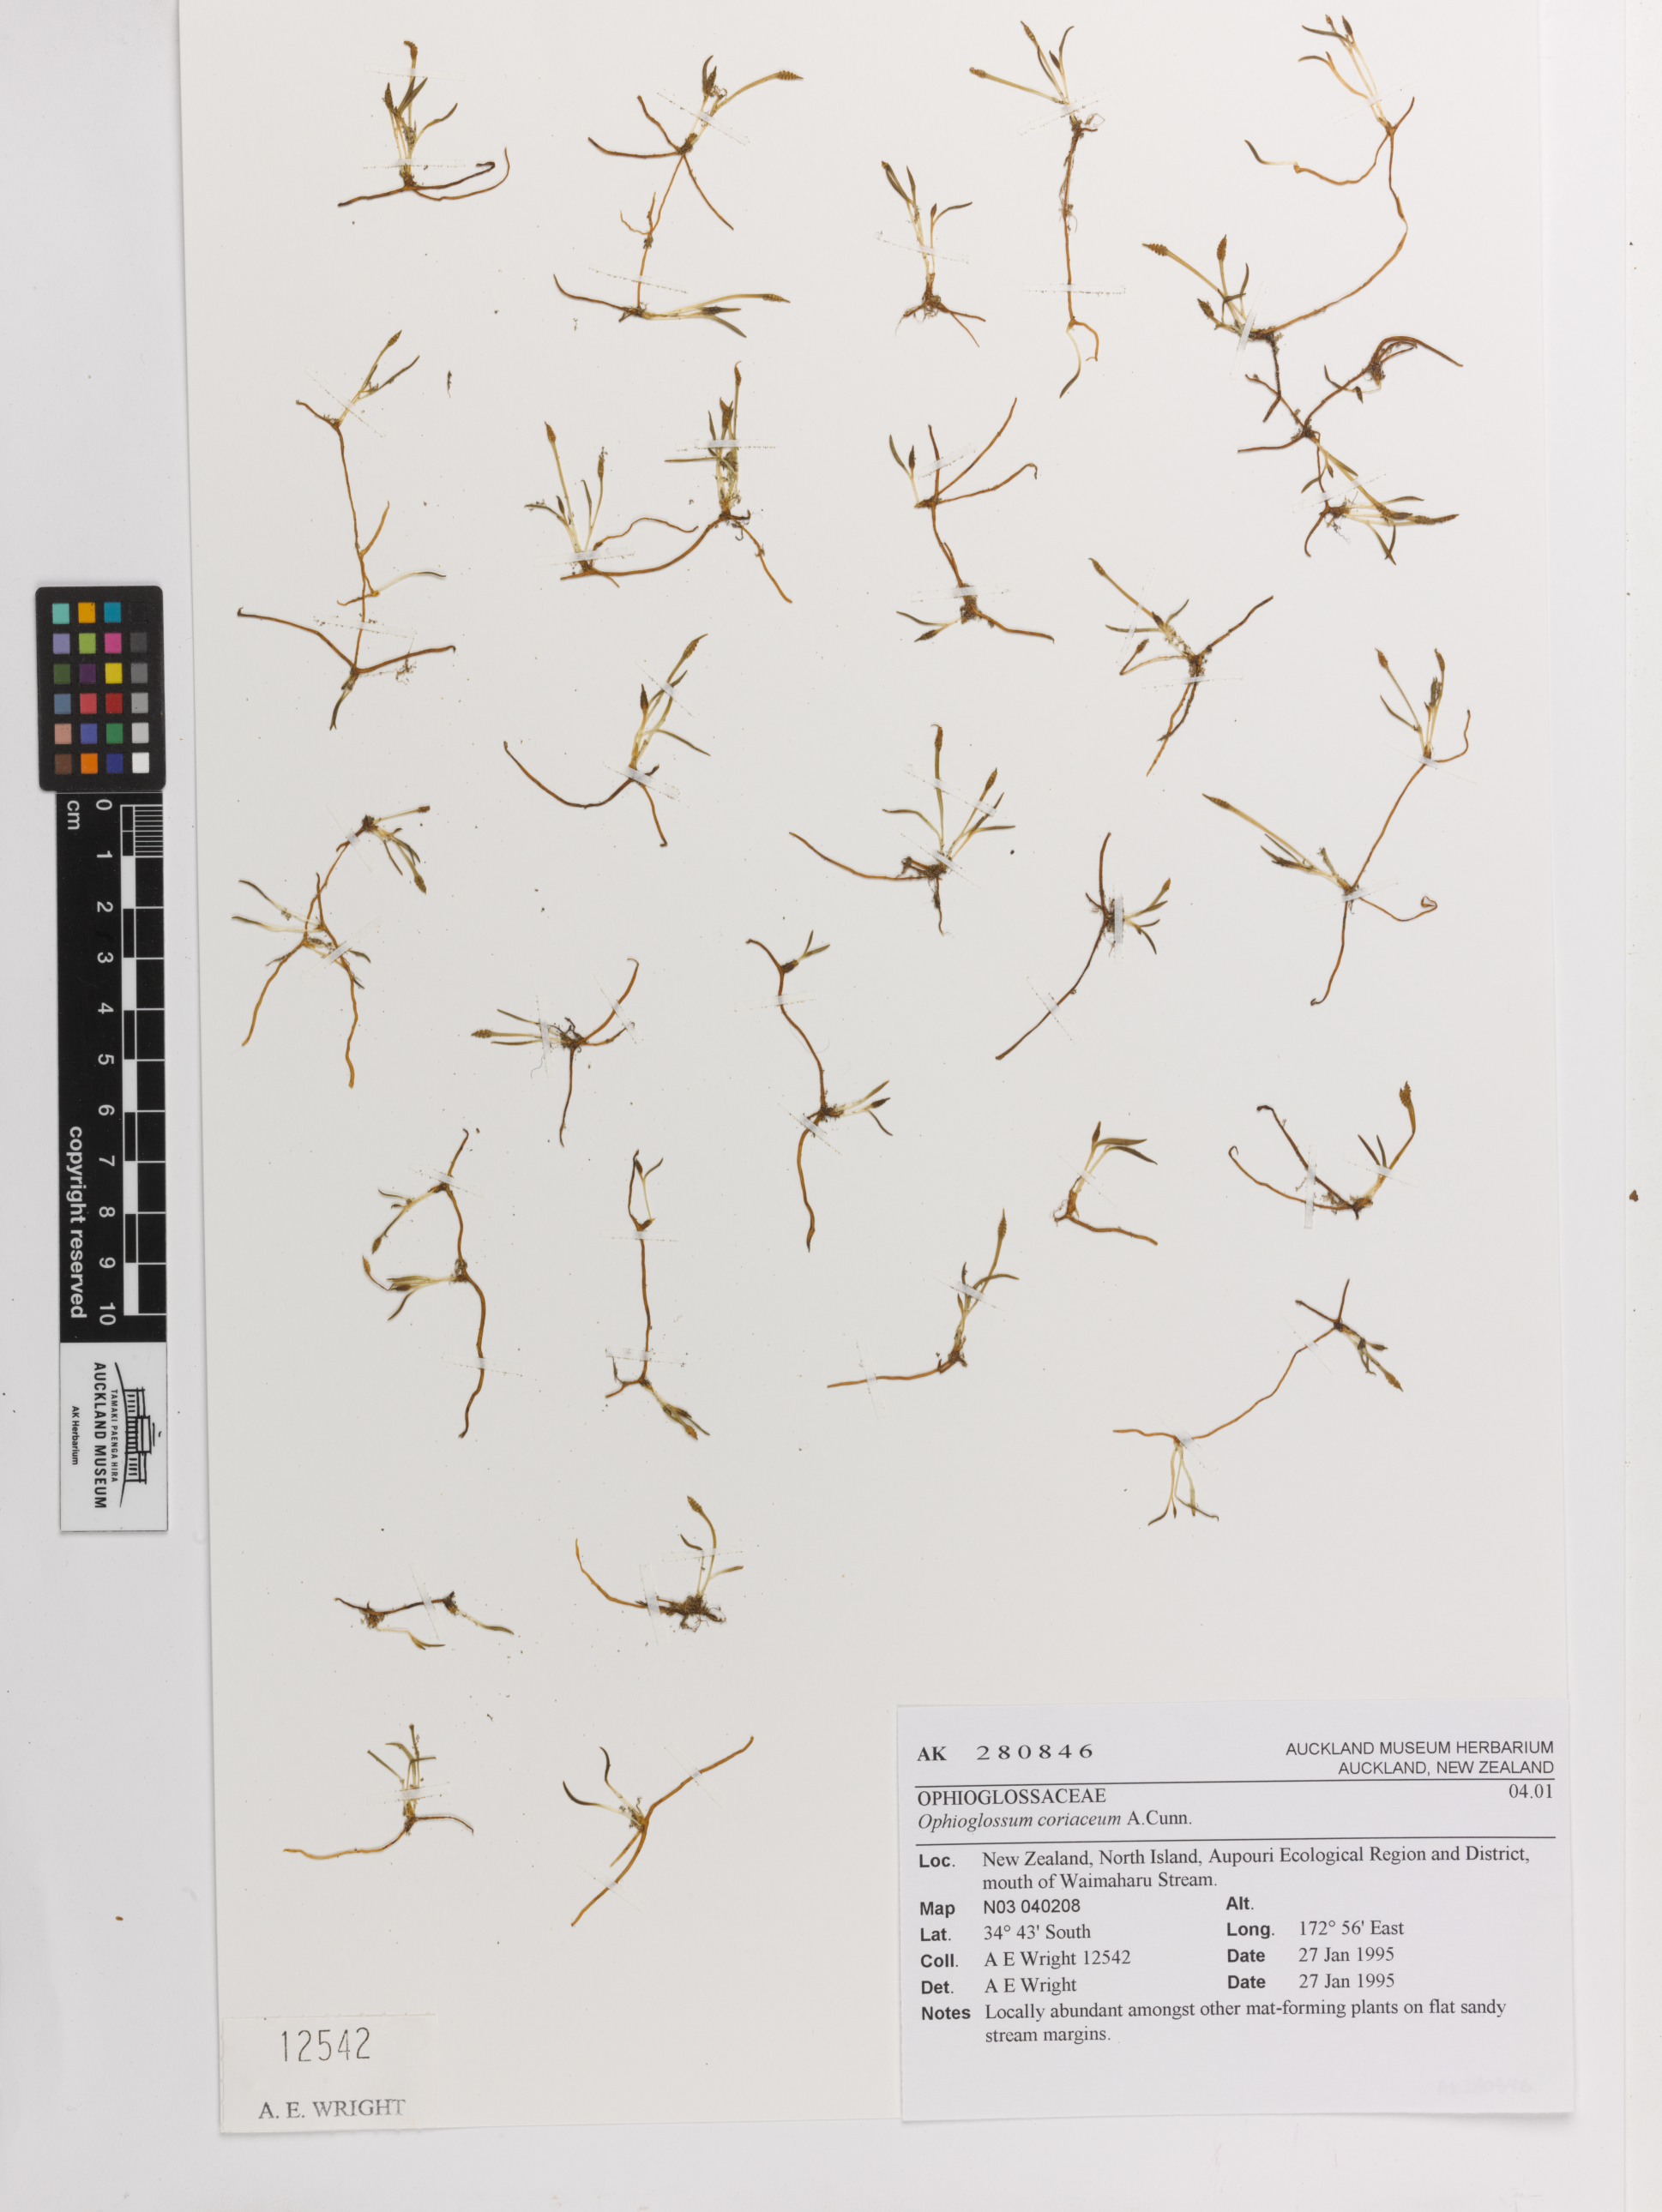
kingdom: Plantae
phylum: Tracheophyta
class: Polypodiopsida
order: Ophioglossales
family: Ophioglossaceae
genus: Ophioglossum
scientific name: Ophioglossum coriaceum
